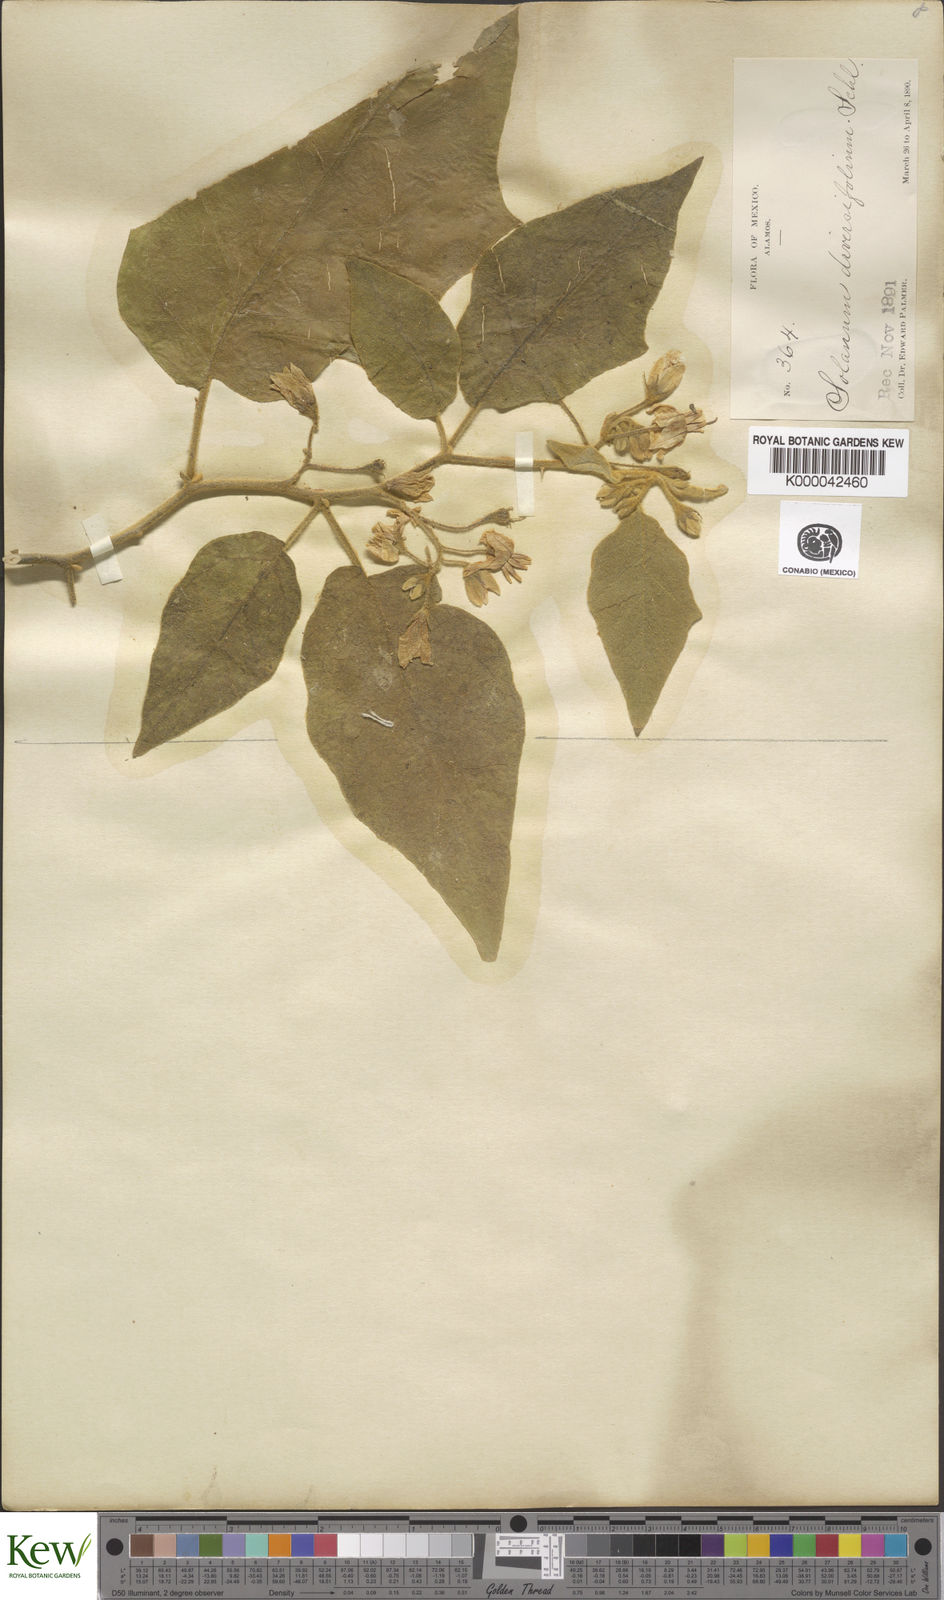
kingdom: Plantae
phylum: Tracheophyta
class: Magnoliopsida
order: Solanales
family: Solanaceae
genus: Solanum
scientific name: Solanum diversifolium
